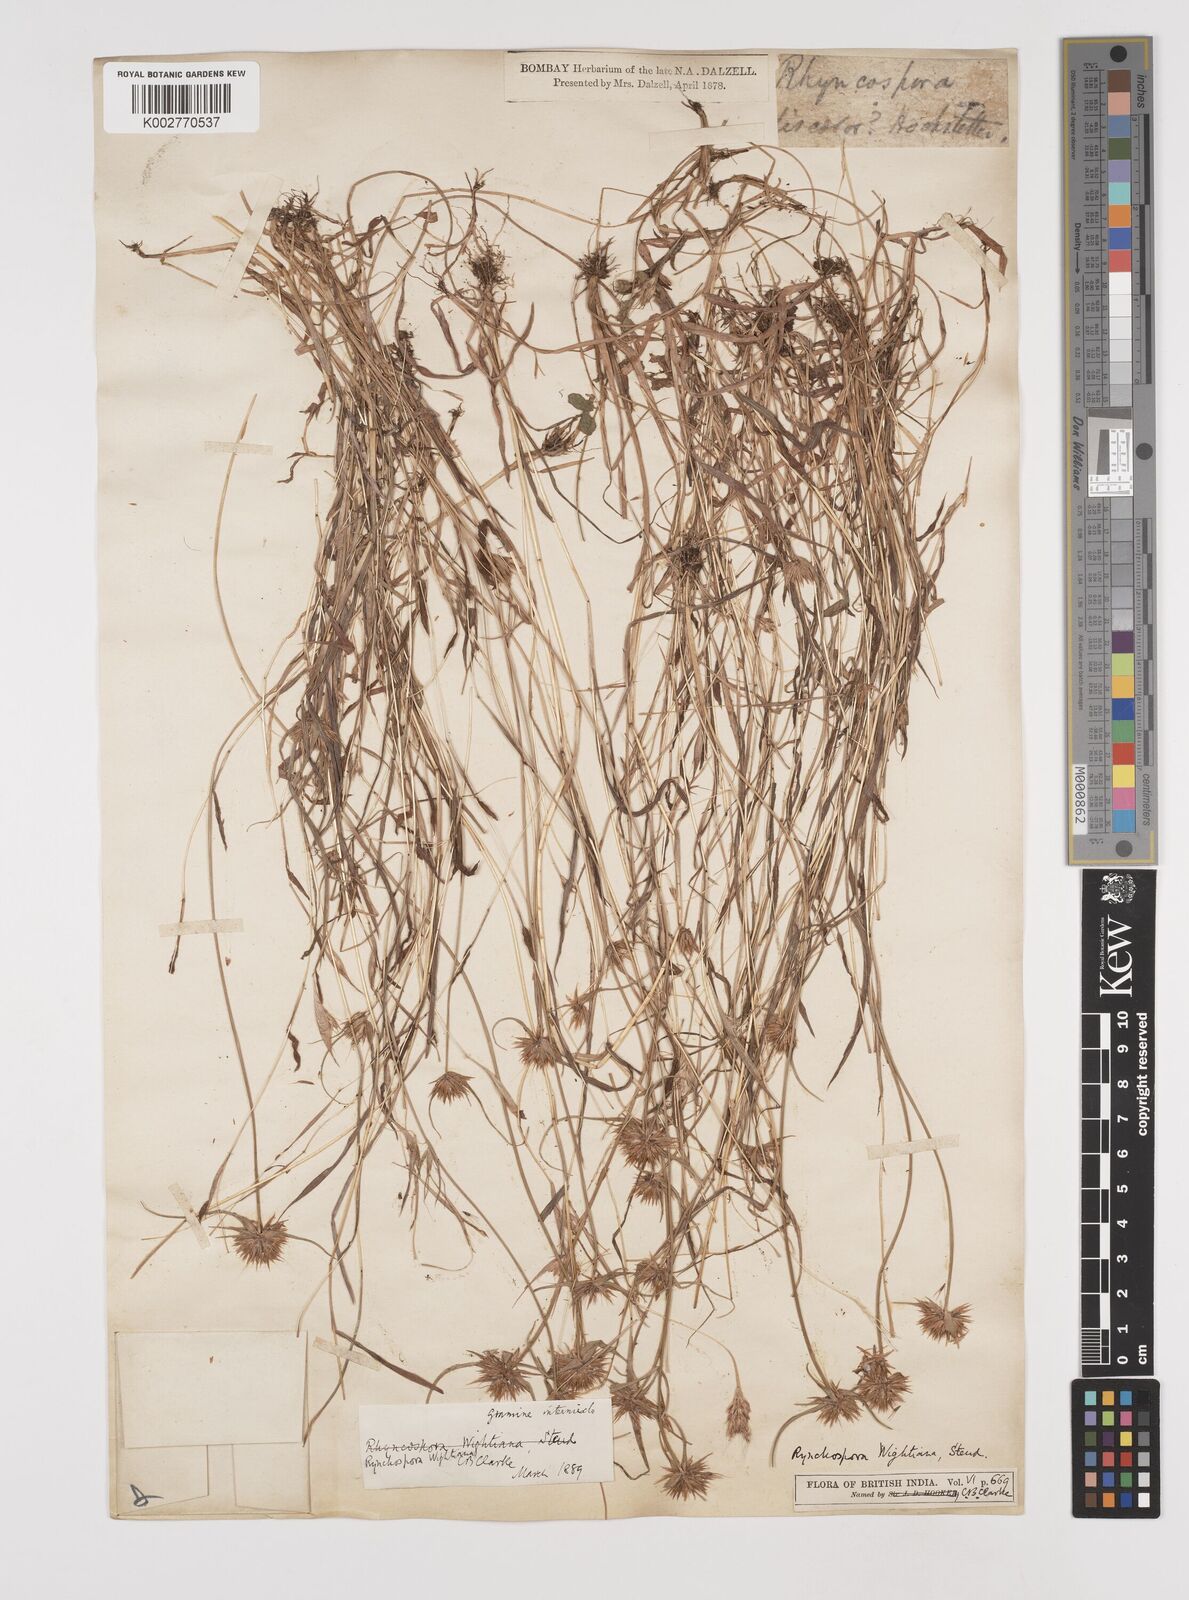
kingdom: Plantae
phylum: Tracheophyta
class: Liliopsida
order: Poales
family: Cyperaceae
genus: Rhynchospora
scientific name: Rhynchospora wightiana
